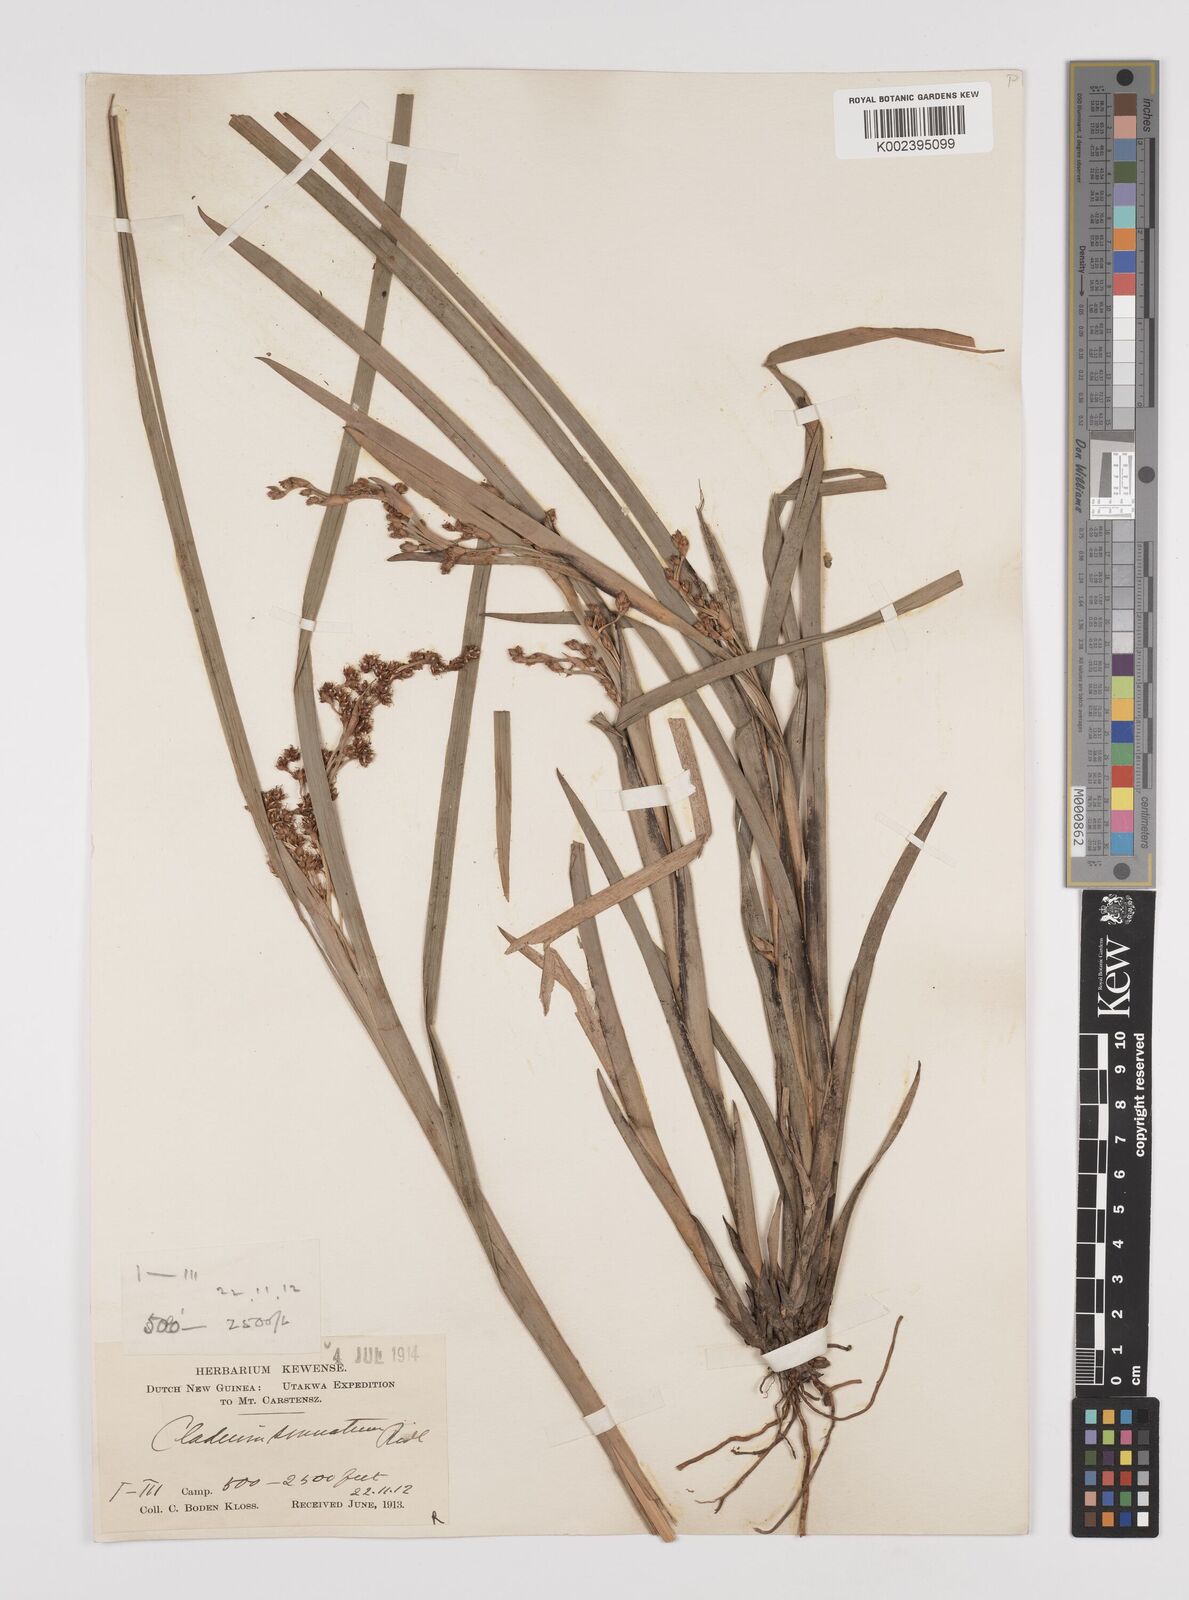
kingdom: Plantae
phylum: Tracheophyta
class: Liliopsida
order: Poales
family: Cyperaceae
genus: Machaerina
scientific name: Machaerina glomerata
